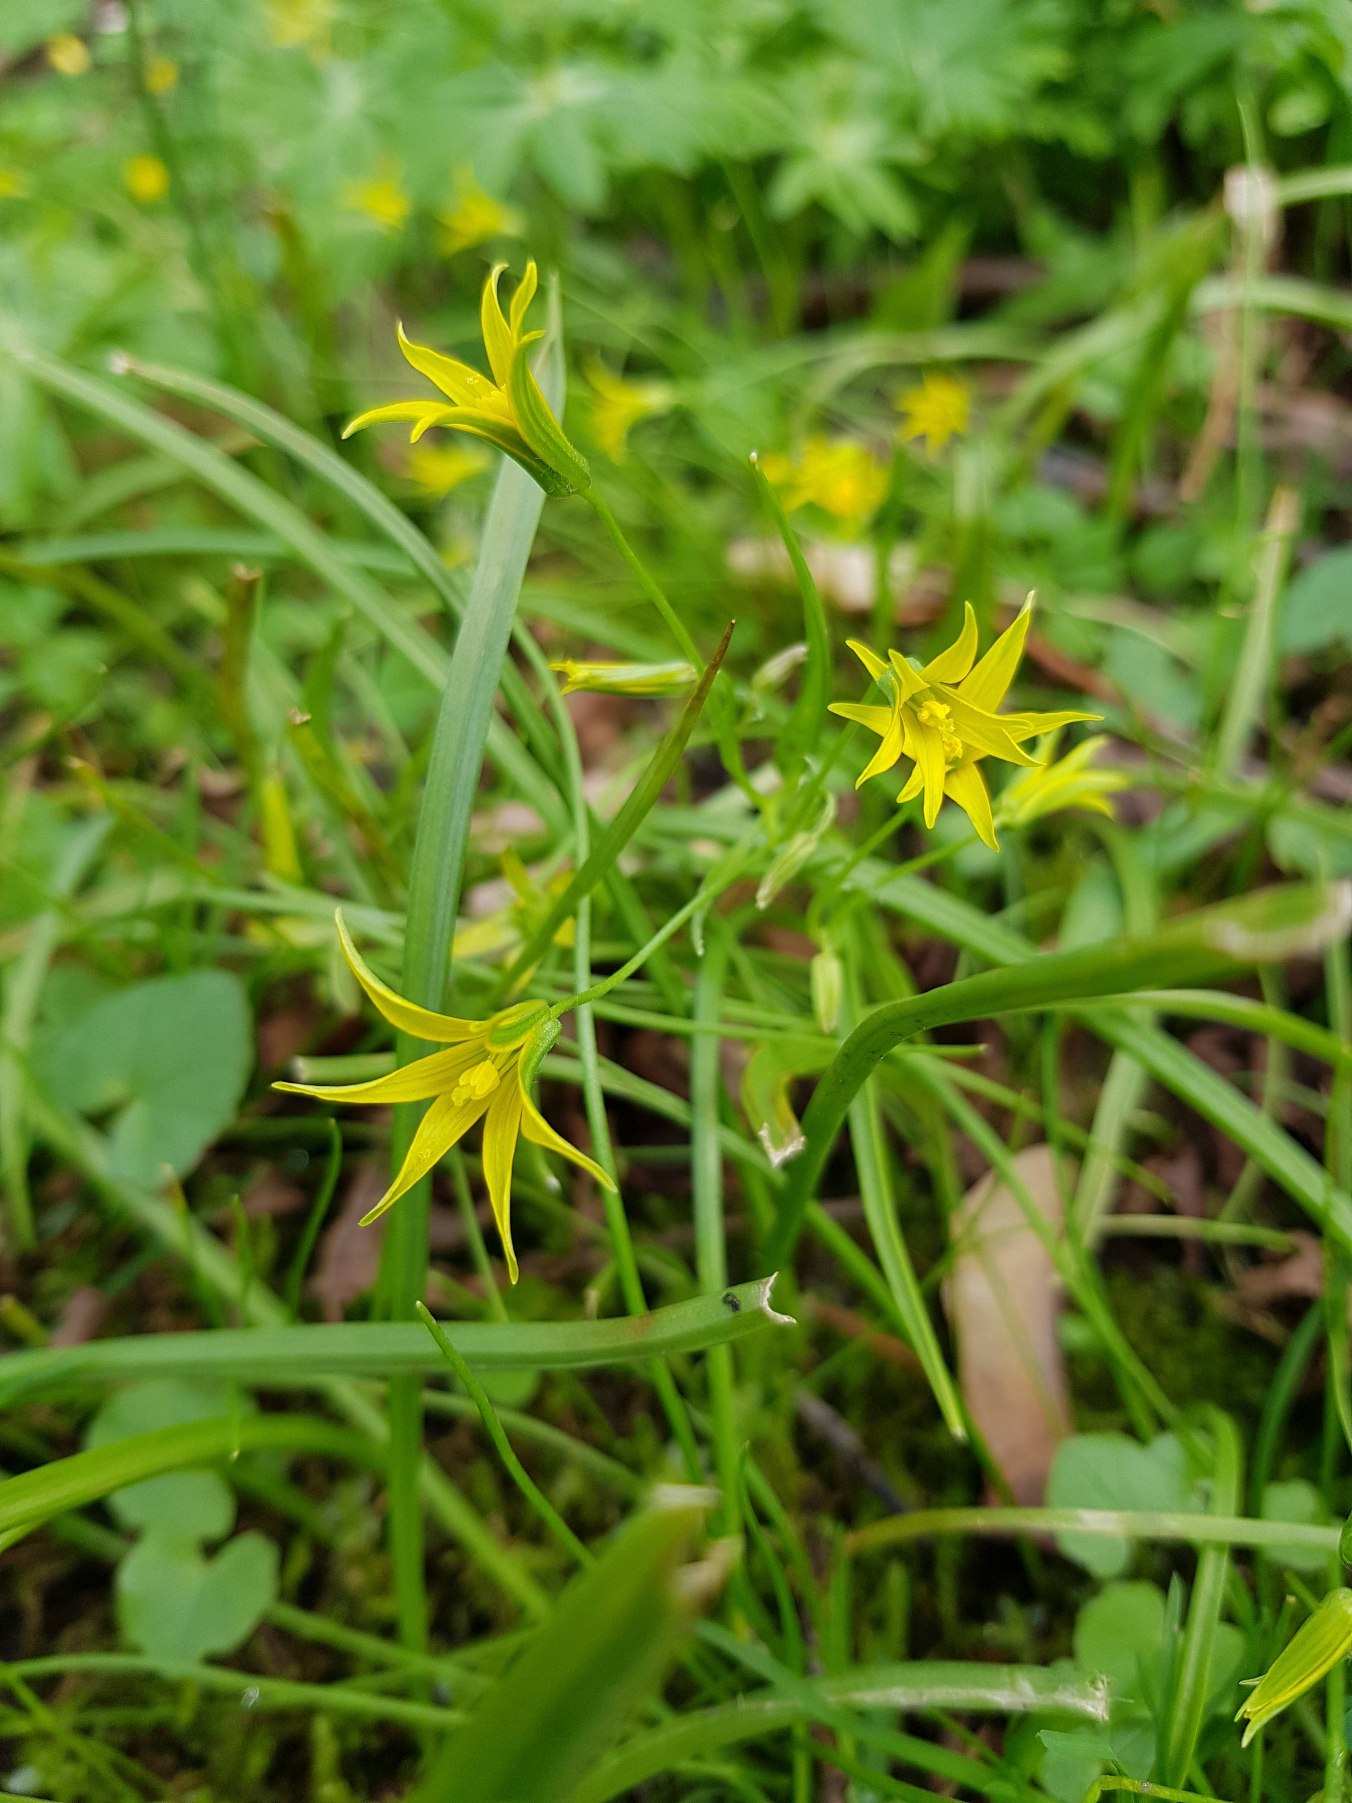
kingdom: Plantae
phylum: Tracheophyta
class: Liliopsida
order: Liliales
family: Liliaceae
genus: Gagea
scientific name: Gagea minima
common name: Liden guldstjerne
